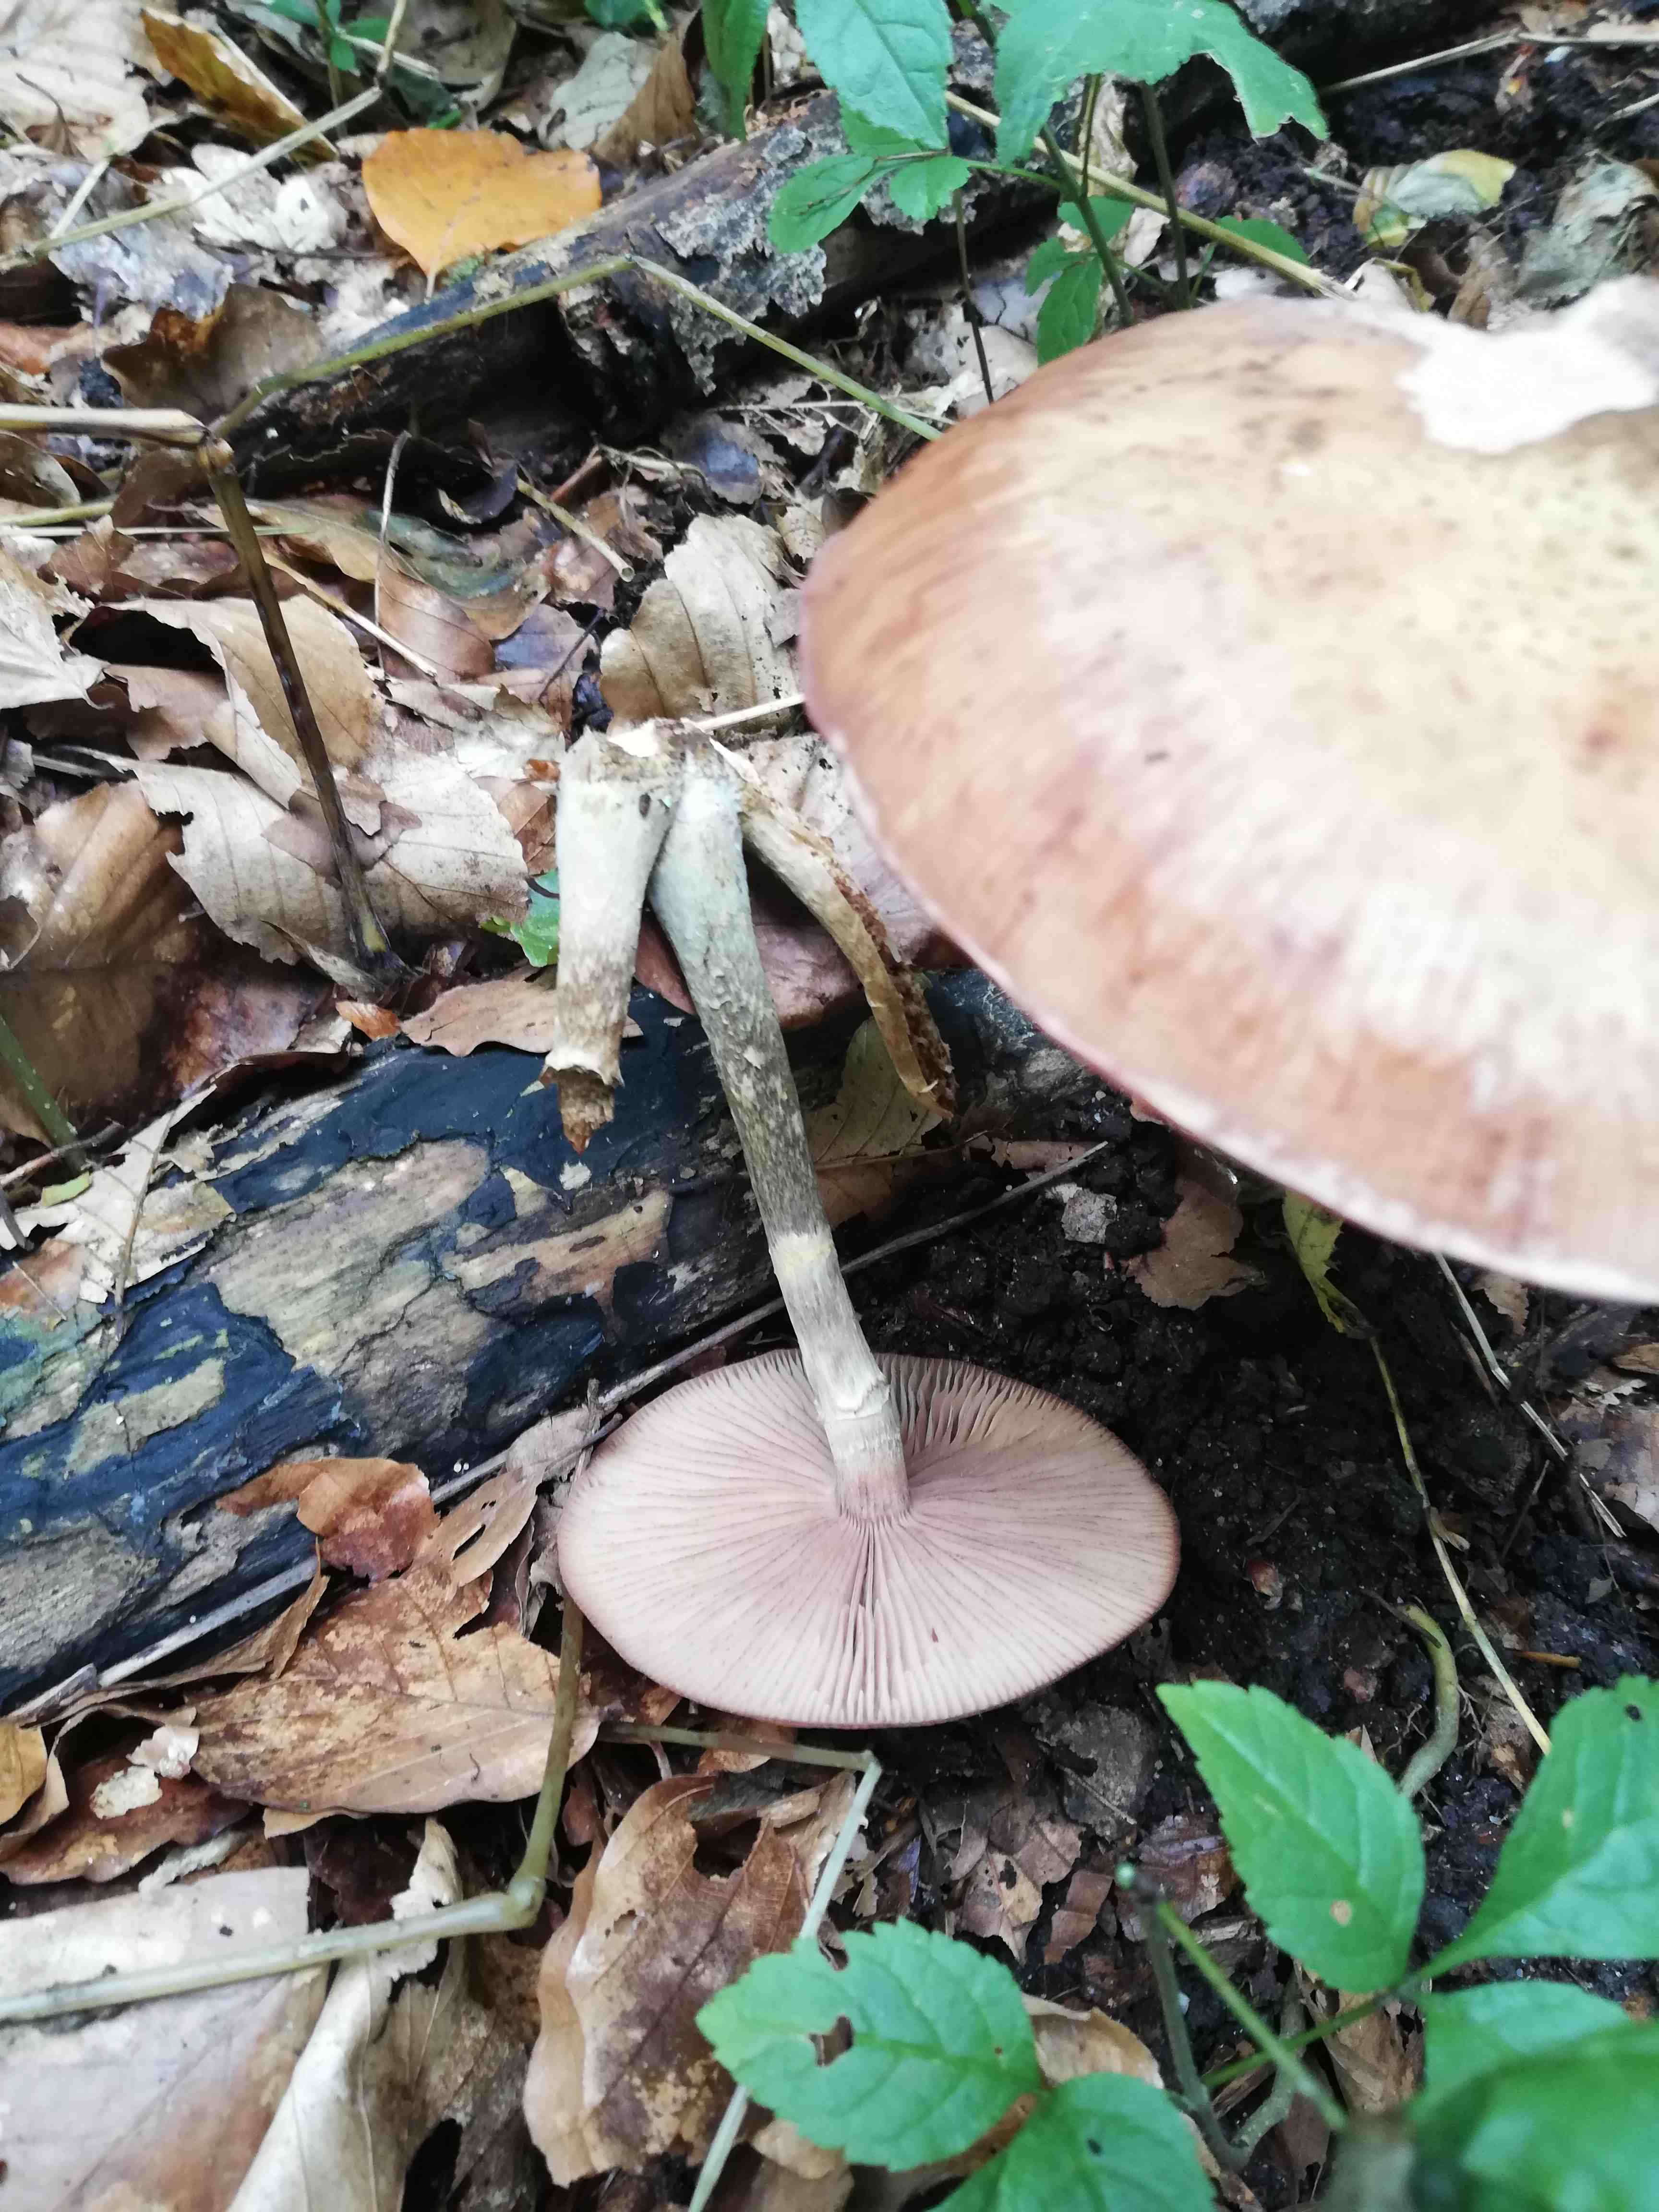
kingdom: Fungi
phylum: Basidiomycota
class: Agaricomycetes
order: Agaricales
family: Physalacriaceae
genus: Armillaria
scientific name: Armillaria
